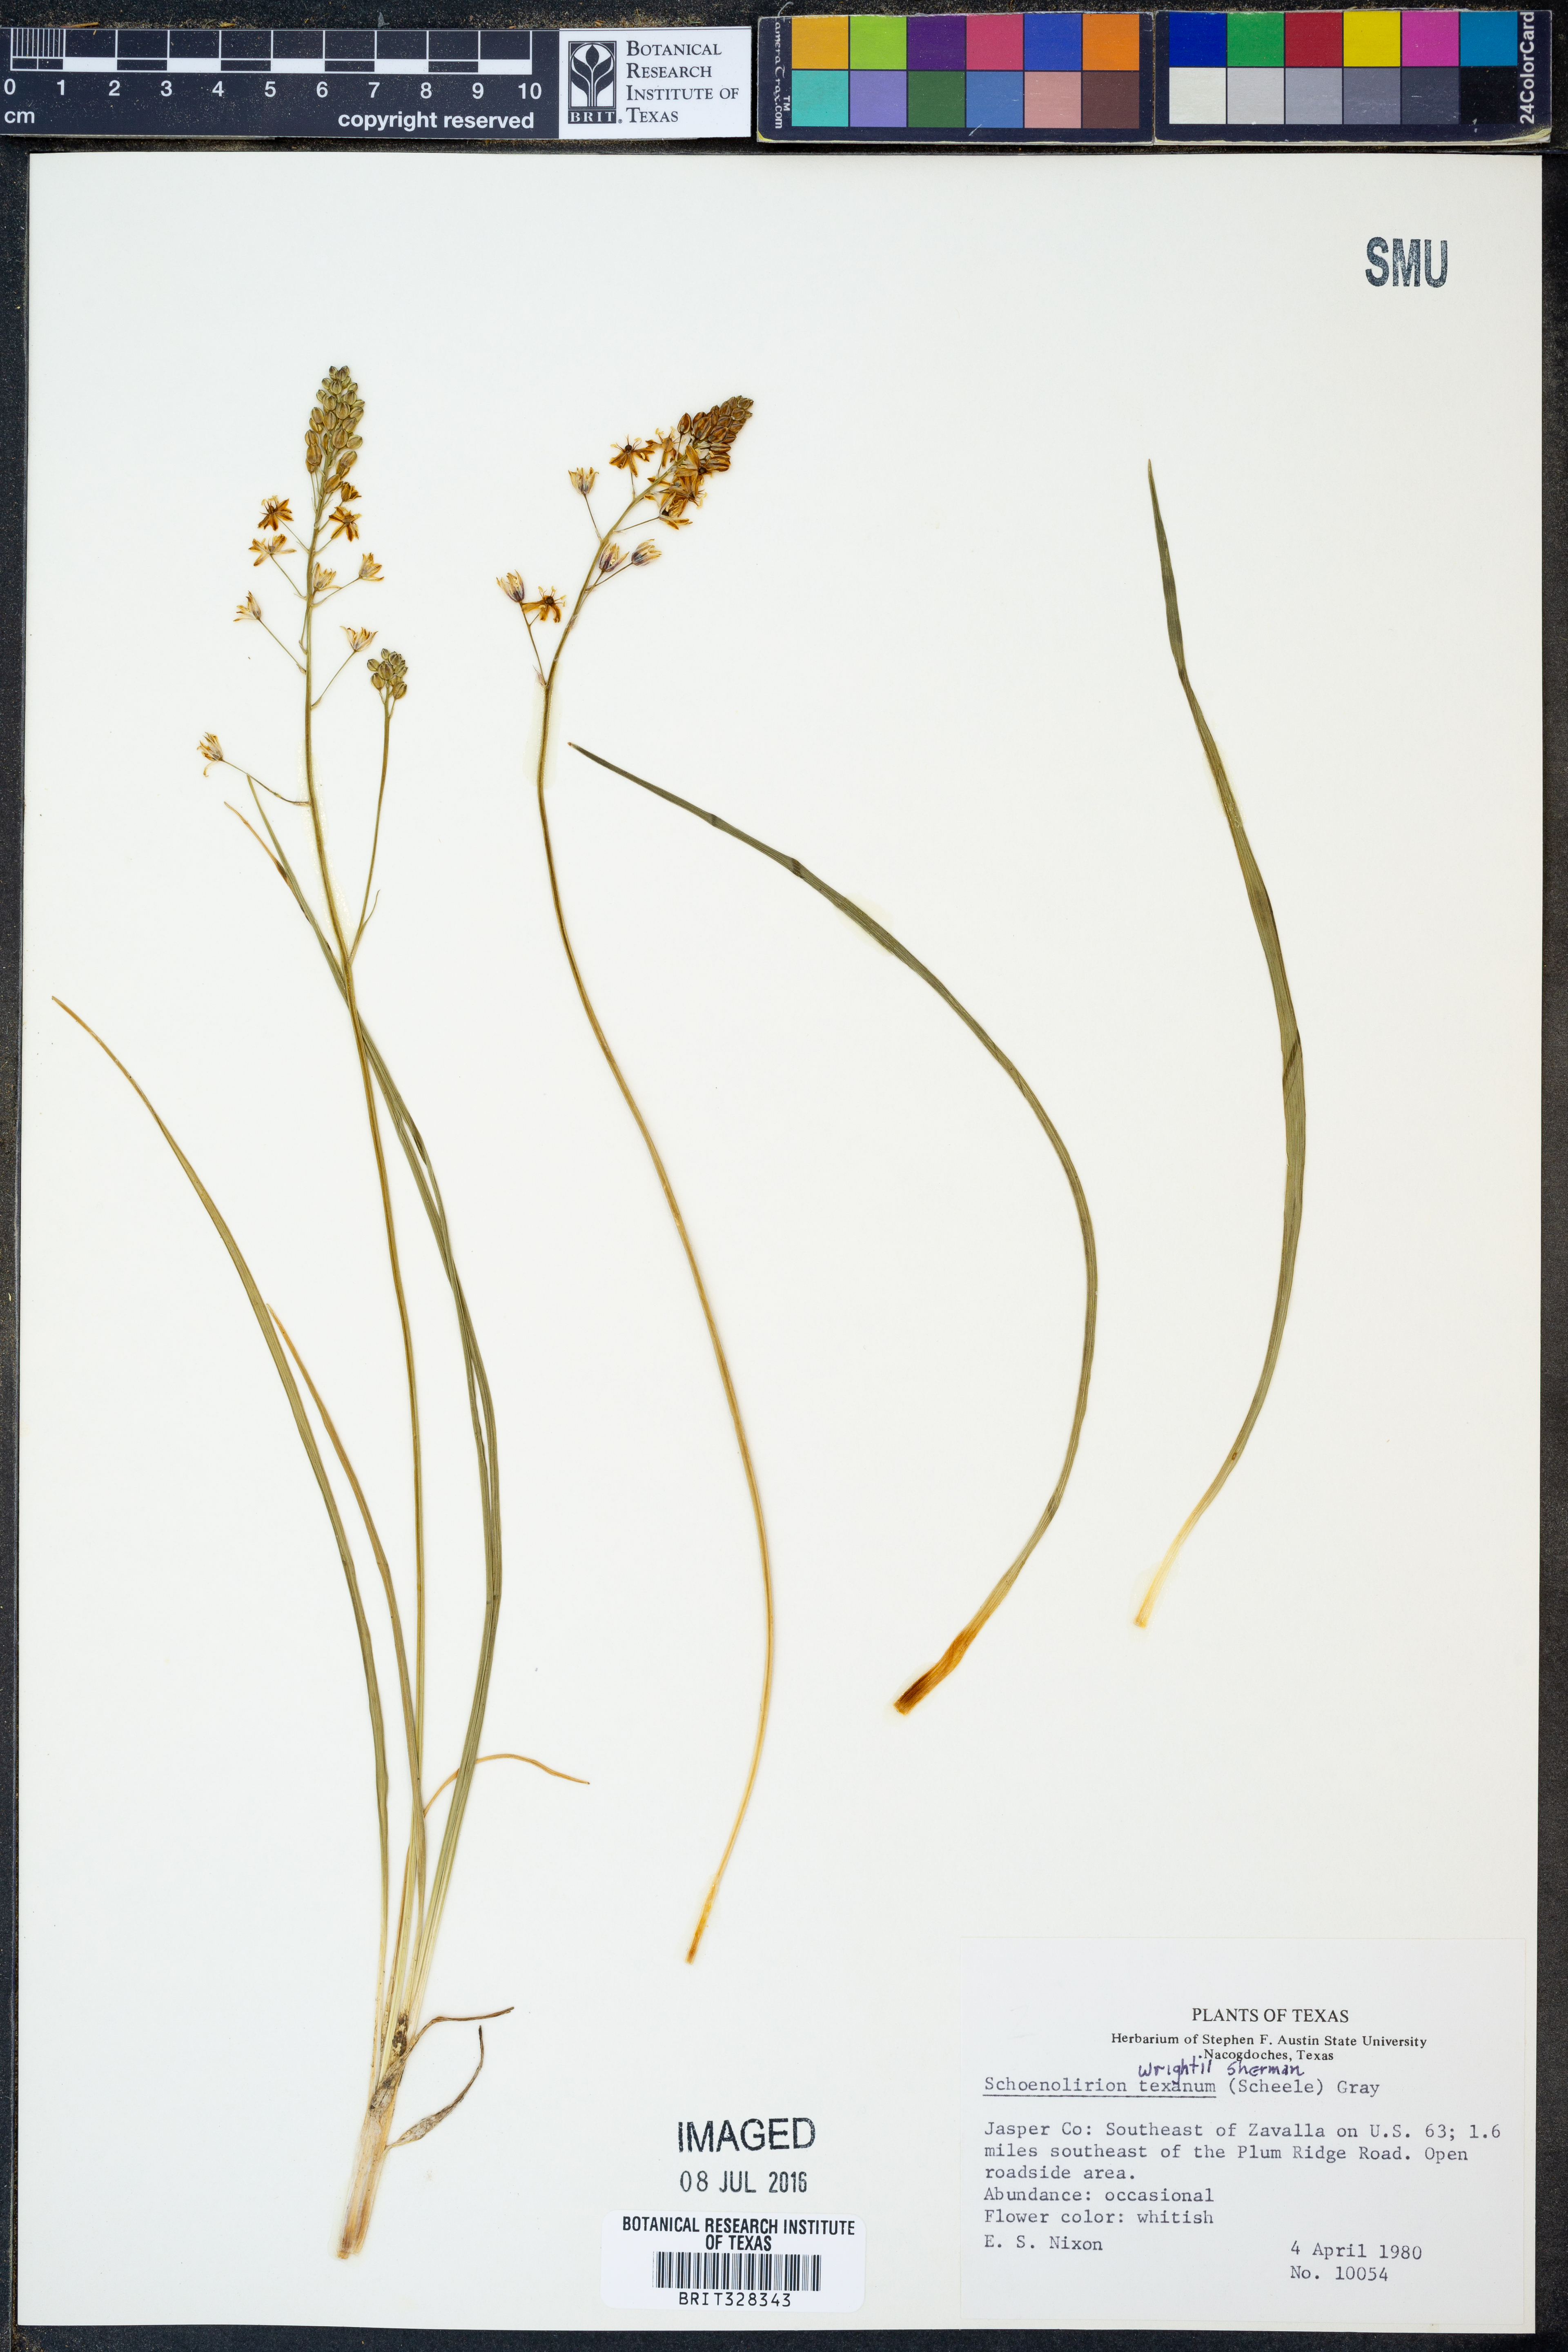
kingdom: Plantae
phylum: Tracheophyta
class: Liliopsida
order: Asparagales
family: Asparagaceae
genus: Schoenolirion
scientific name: Schoenolirion wrightii
